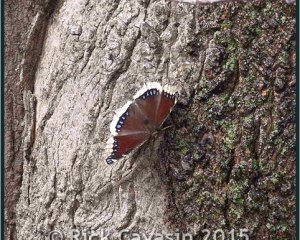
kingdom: Animalia
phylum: Arthropoda
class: Insecta
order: Lepidoptera
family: Nymphalidae
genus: Nymphalis
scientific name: Nymphalis antiopa
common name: Mourning Cloak
